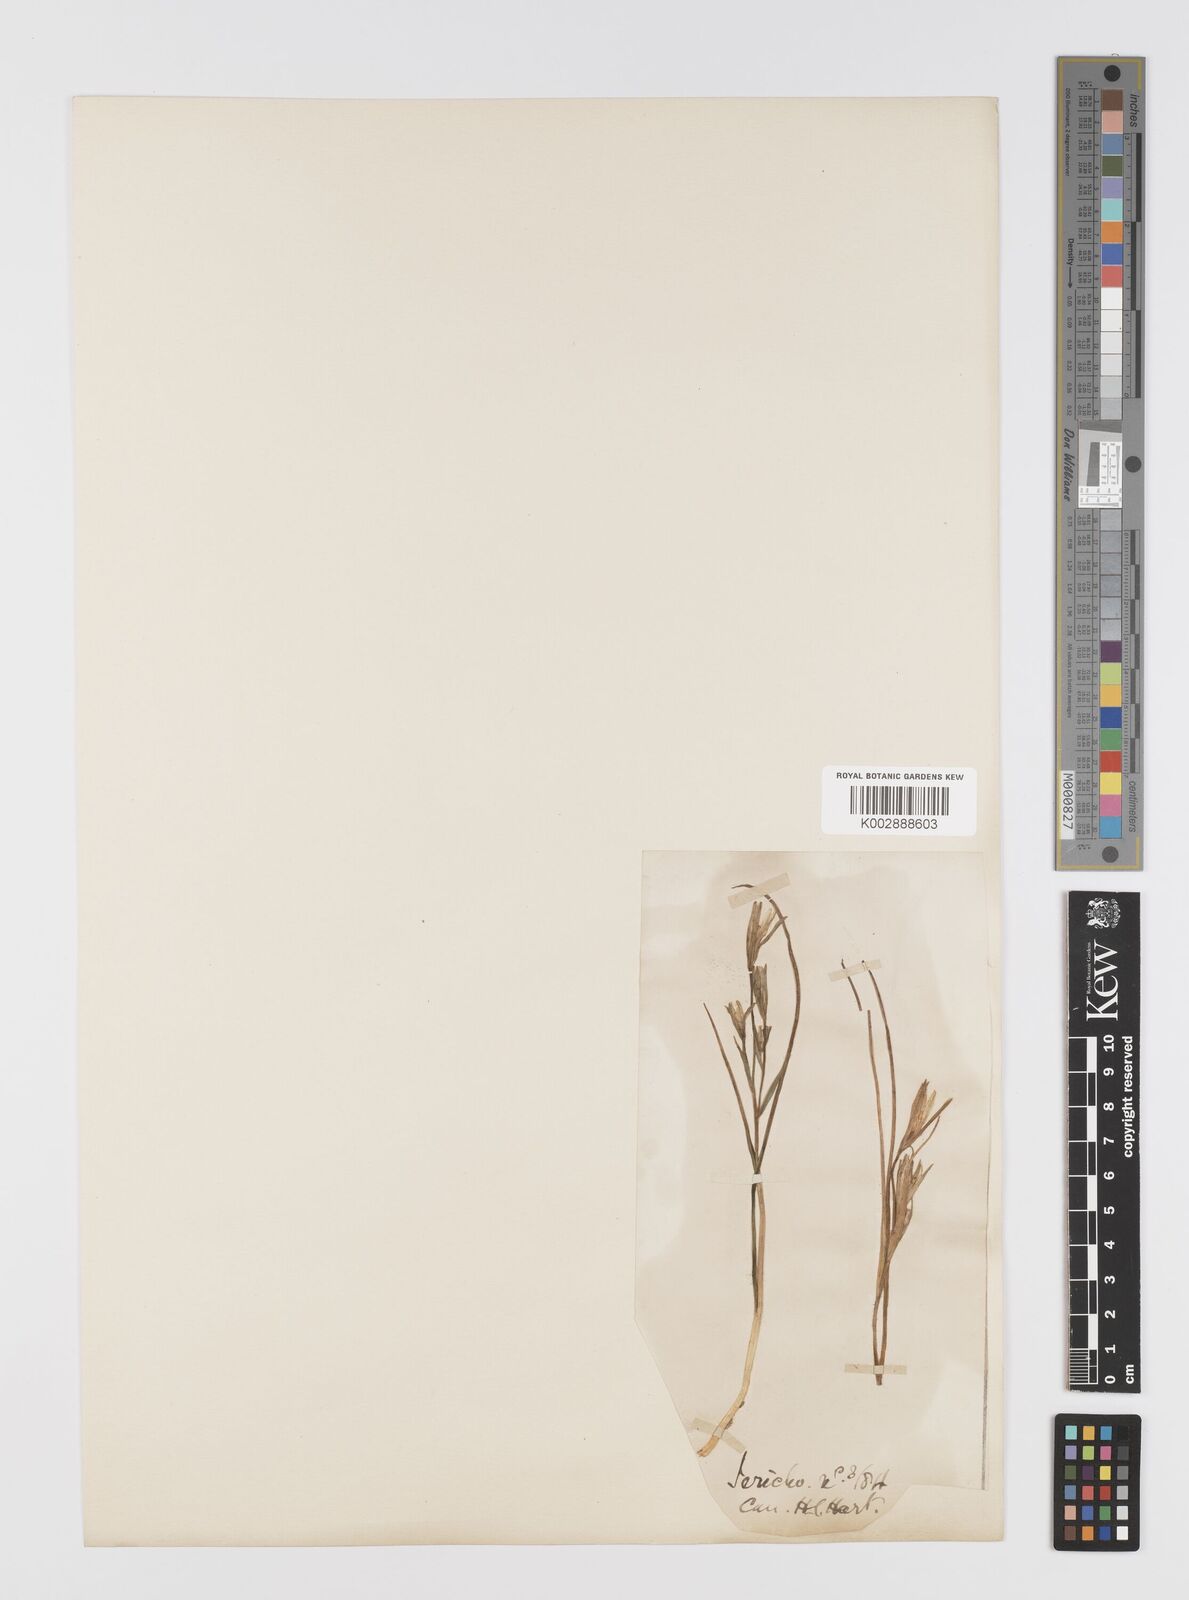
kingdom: Plantae
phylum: Tracheophyta
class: Liliopsida
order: Liliales
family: Liliaceae
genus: Gagea
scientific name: Gagea chlorantha
